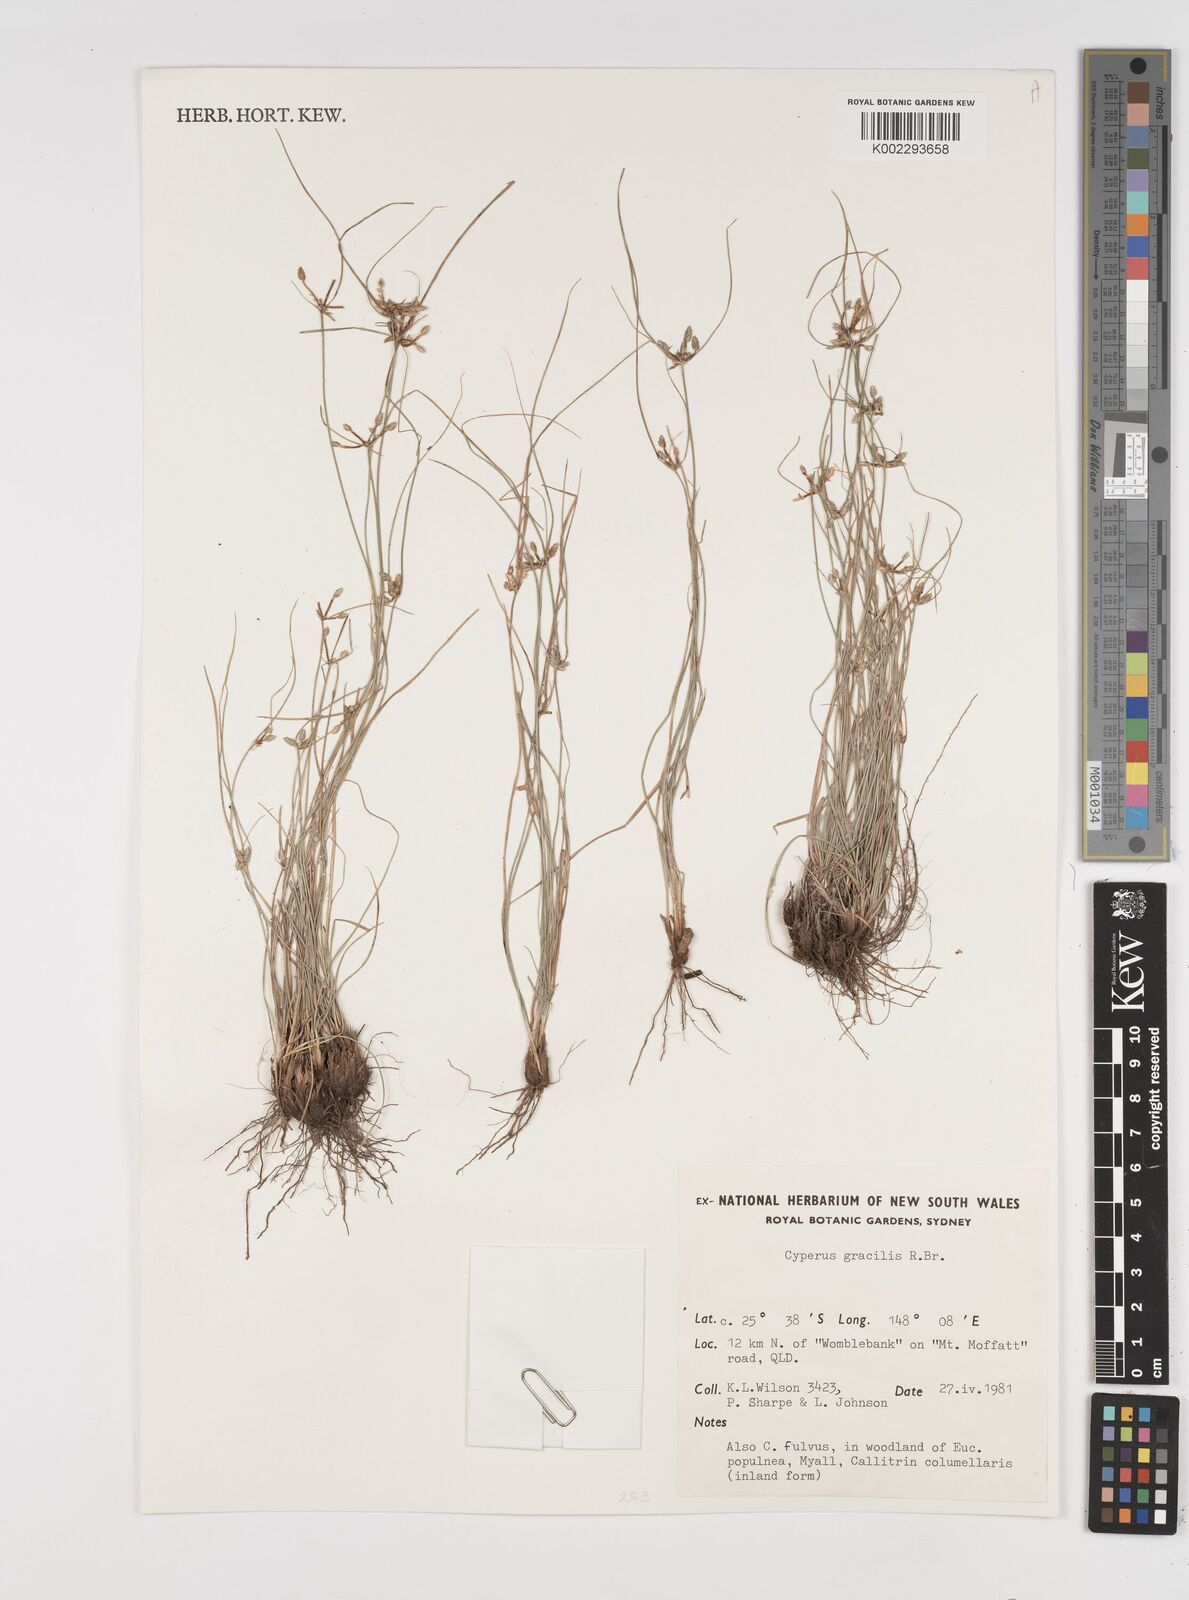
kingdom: Plantae
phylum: Tracheophyta
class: Liliopsida
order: Poales
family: Cyperaceae
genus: Cyperus
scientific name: Cyperus gracilis
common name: Slimjim flatsedge
